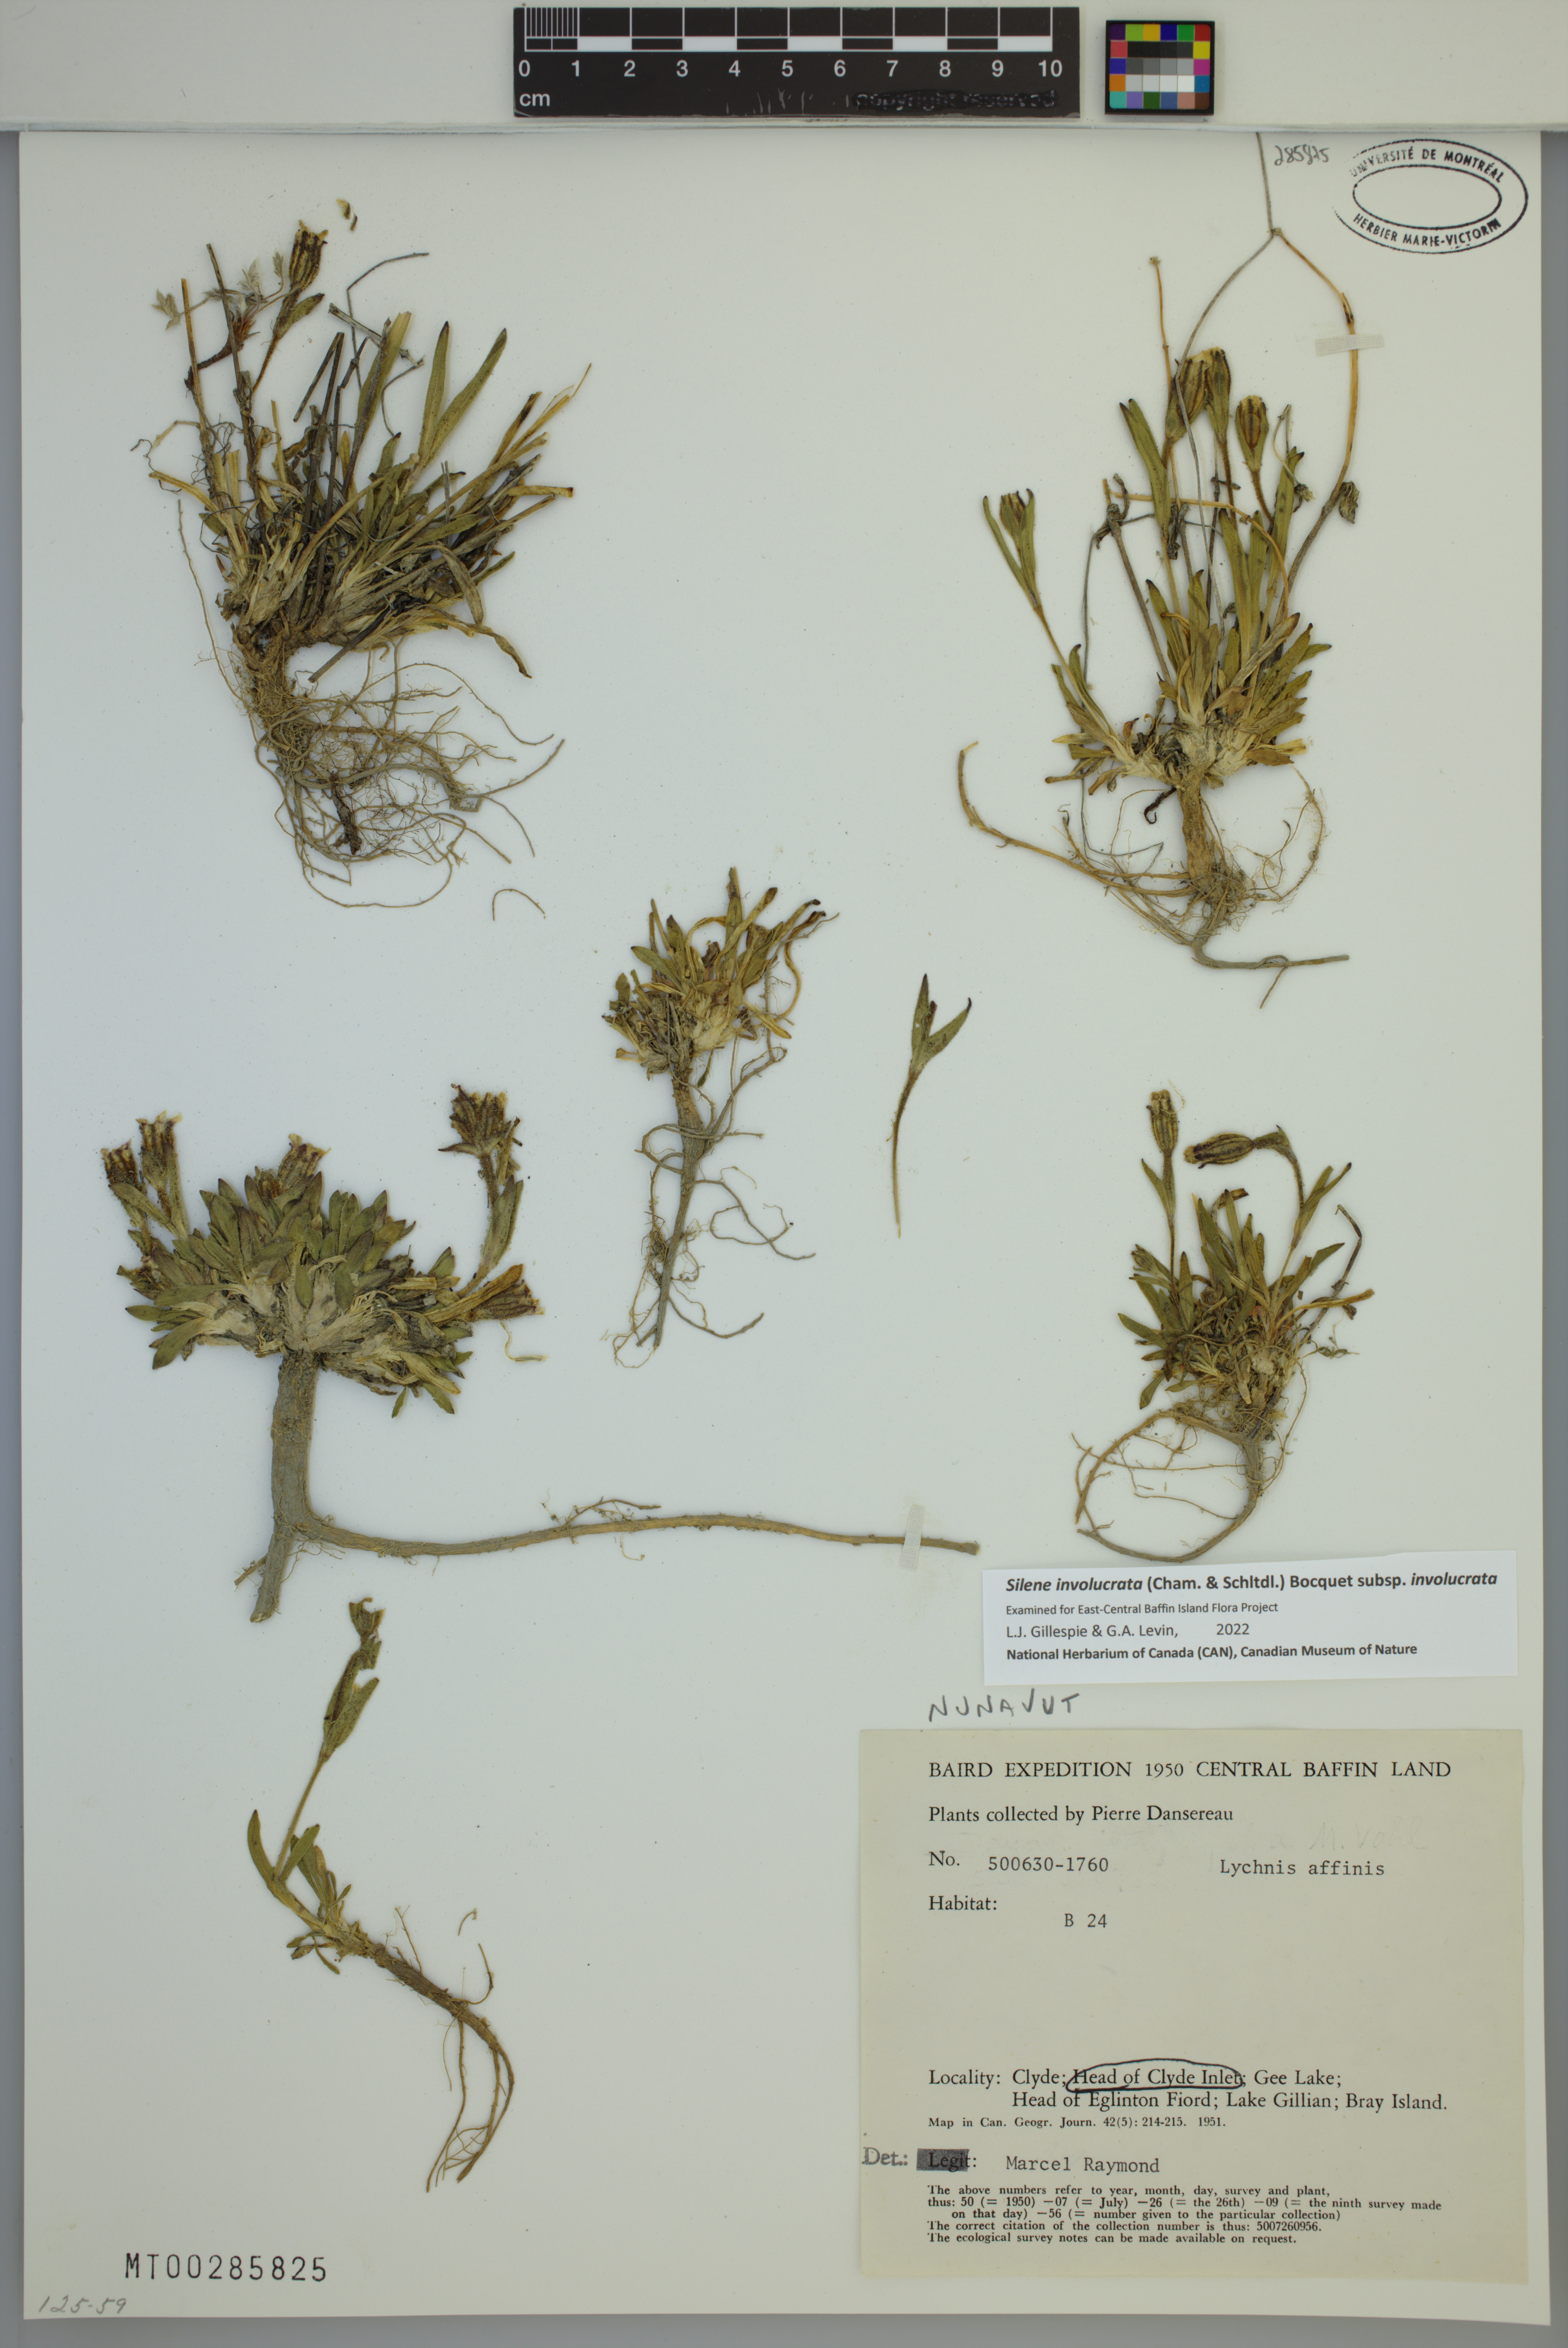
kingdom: Plantae
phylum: Tracheophyta
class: Magnoliopsida
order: Caryophyllales
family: Caryophyllaceae
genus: Silene
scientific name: Silene involucrata
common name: Greater arctic campion
